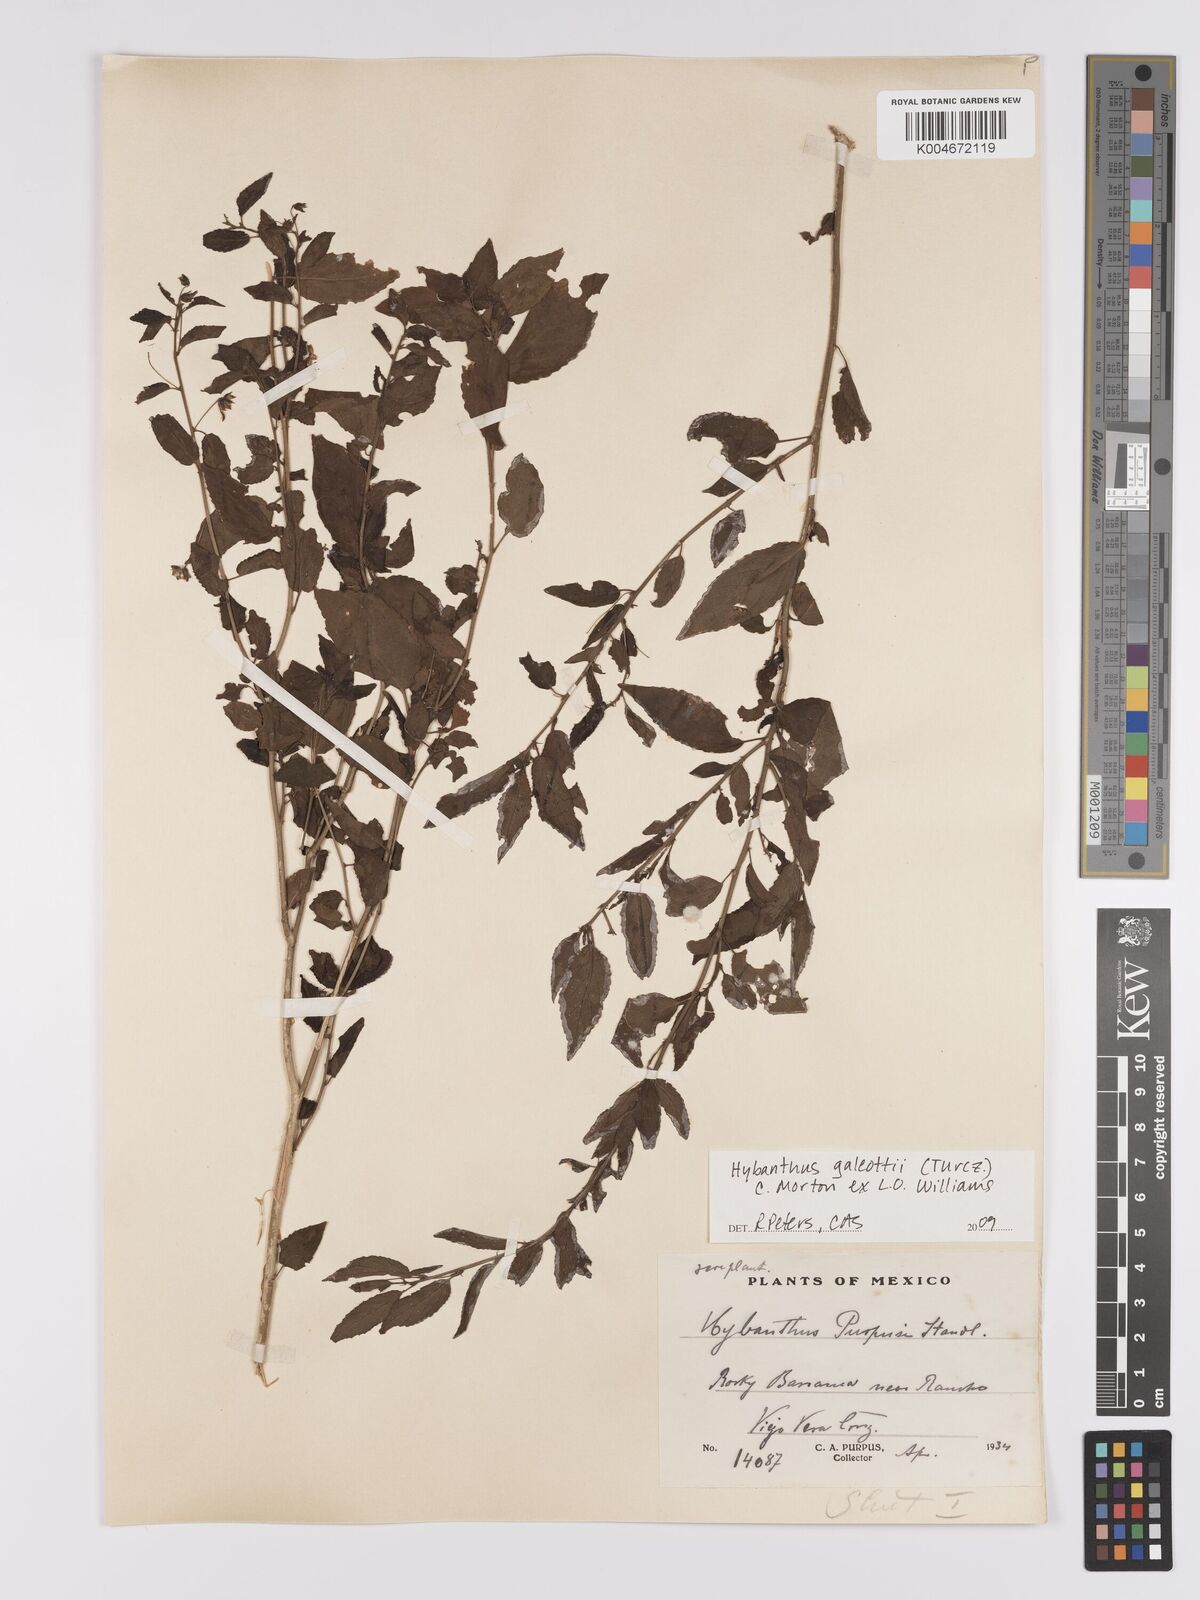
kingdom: Plantae
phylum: Tracheophyta
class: Magnoliopsida
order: Malpighiales
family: Violaceae
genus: Hybanthus
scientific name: Hybanthus galeottii
